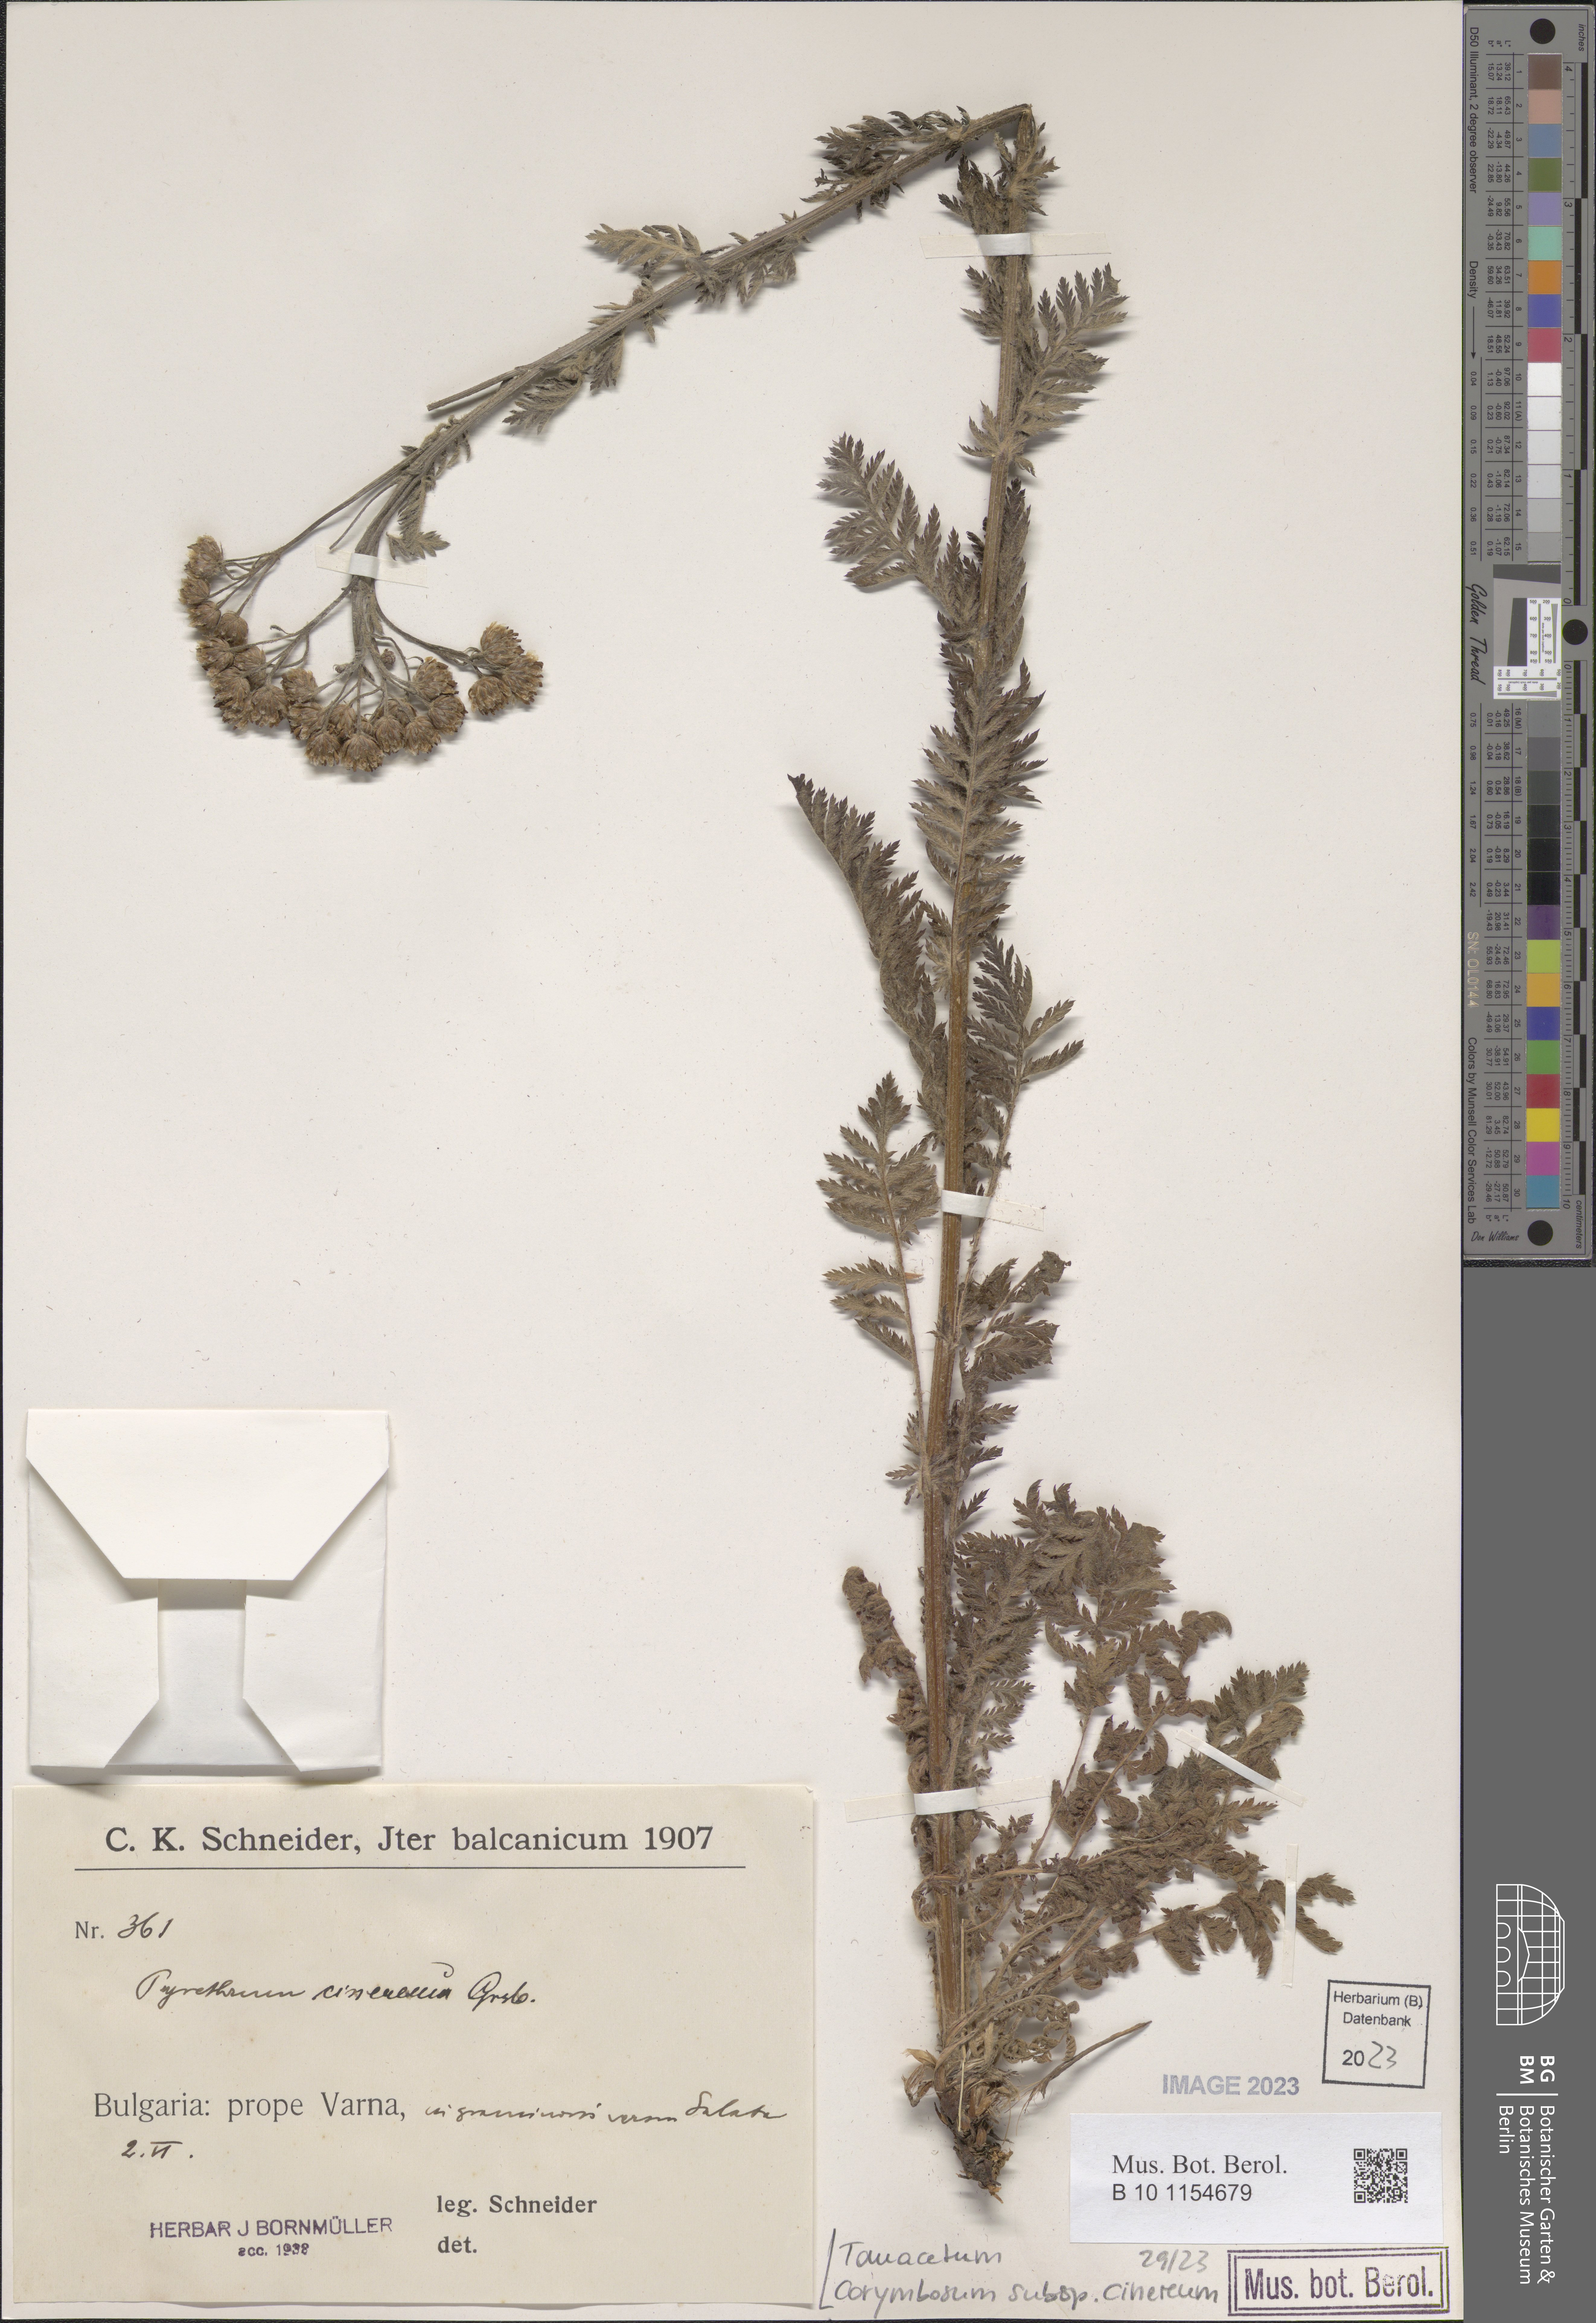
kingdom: Plantae
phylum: Tracheophyta
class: Magnoliopsida
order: Asterales
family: Asteraceae
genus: Tanacetum
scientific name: Tanacetum corymbosum
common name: Scentless feverfew
